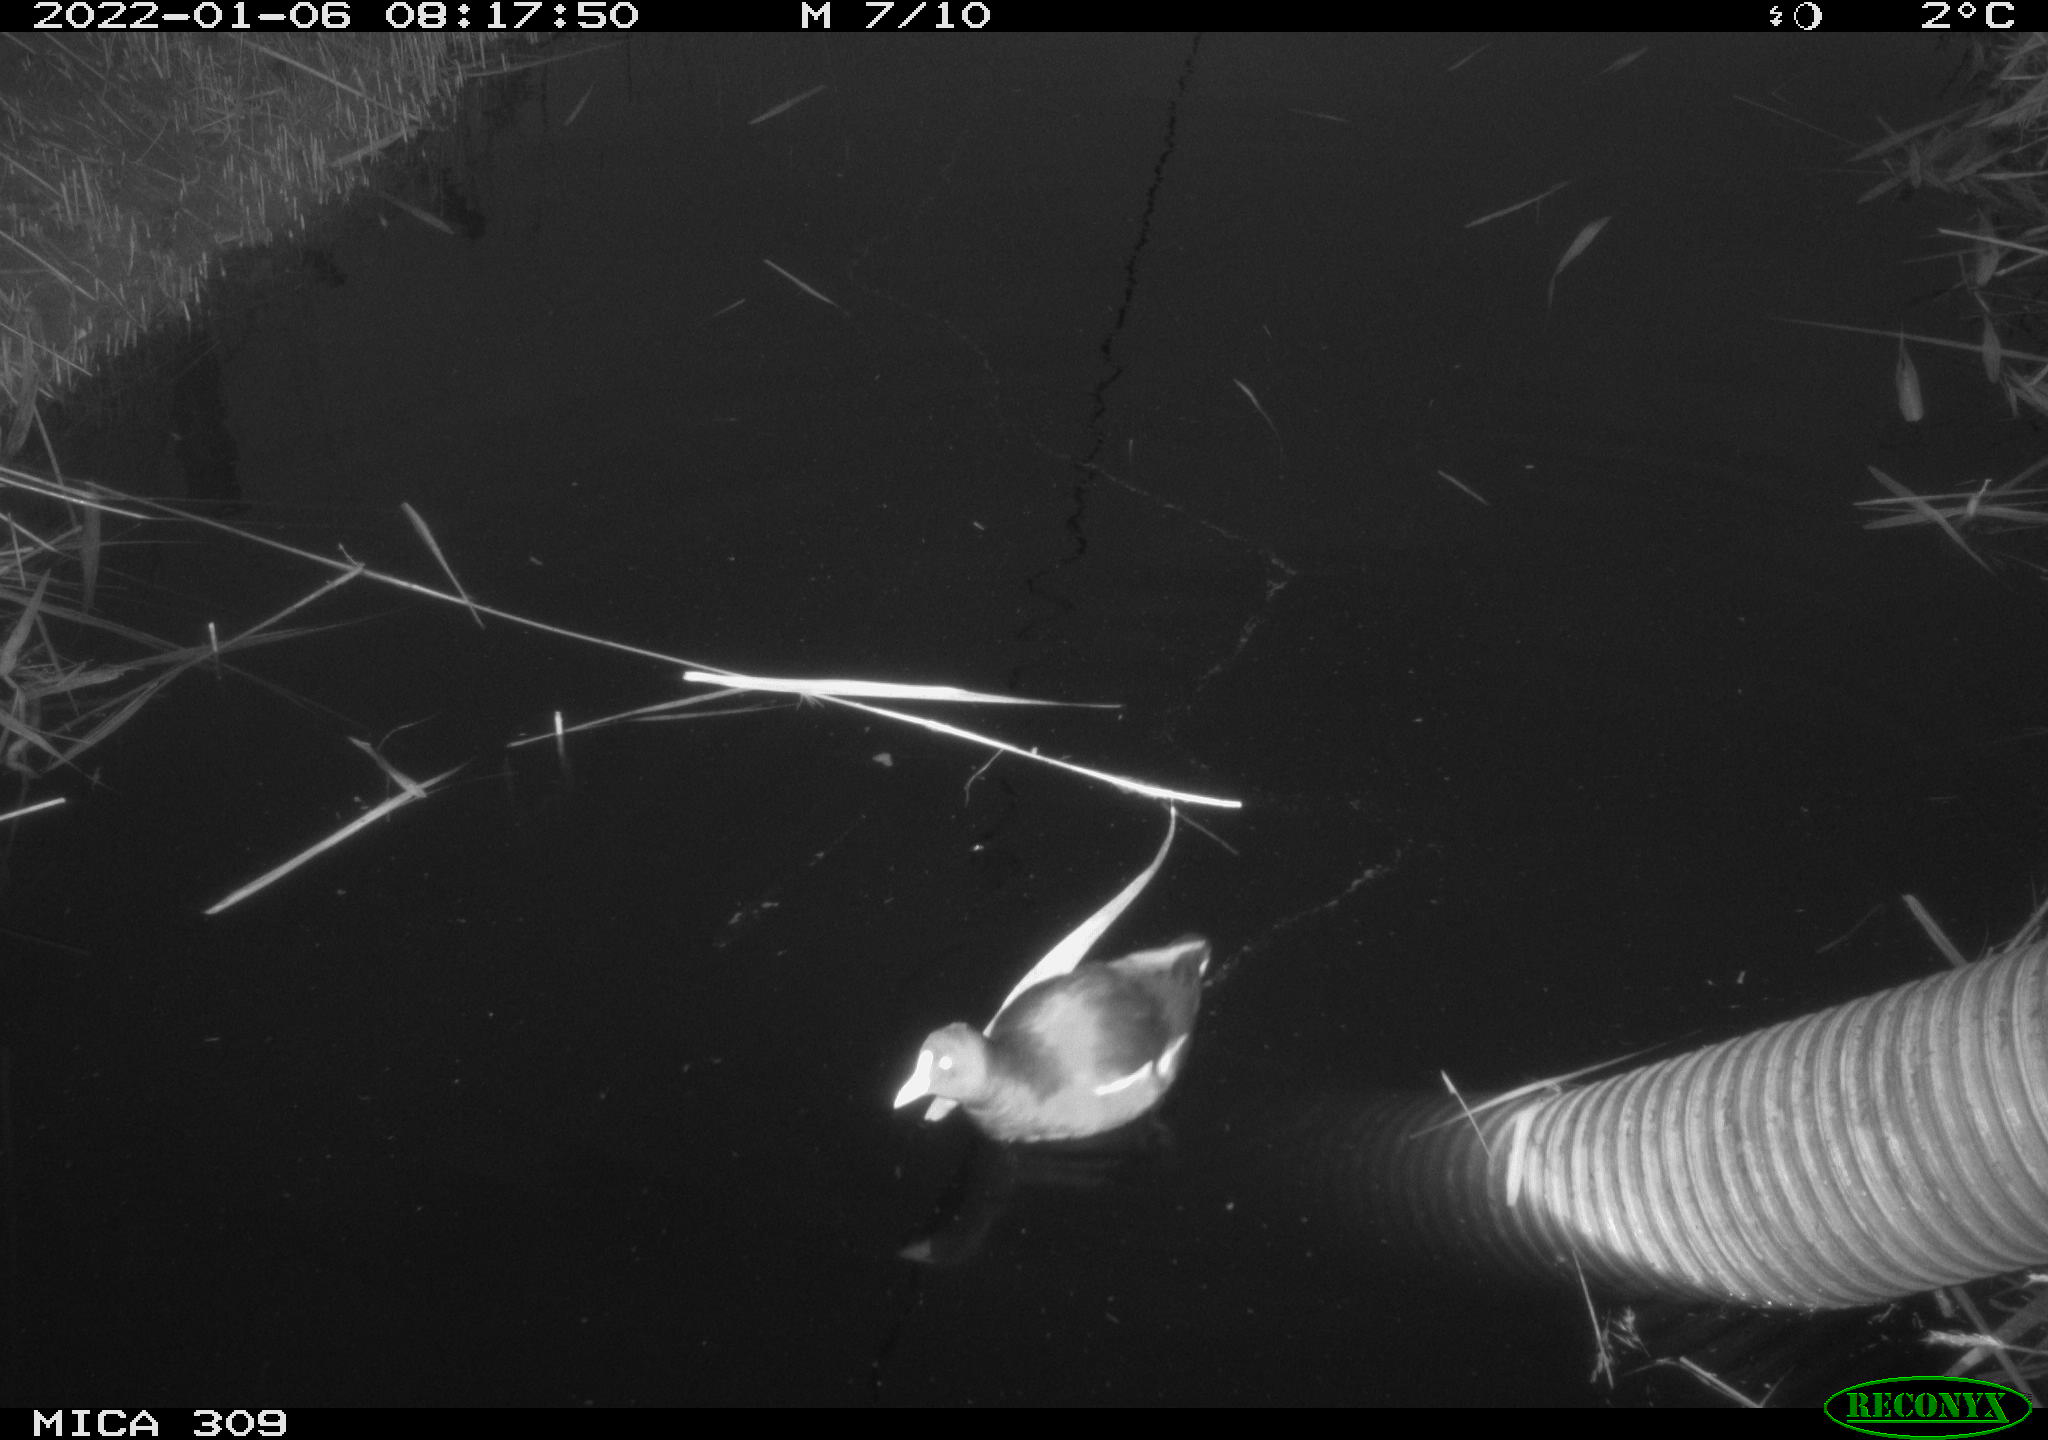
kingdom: Animalia
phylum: Chordata
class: Aves
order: Gruiformes
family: Rallidae
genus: Gallinula
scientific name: Gallinula chloropus
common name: Common moorhen
